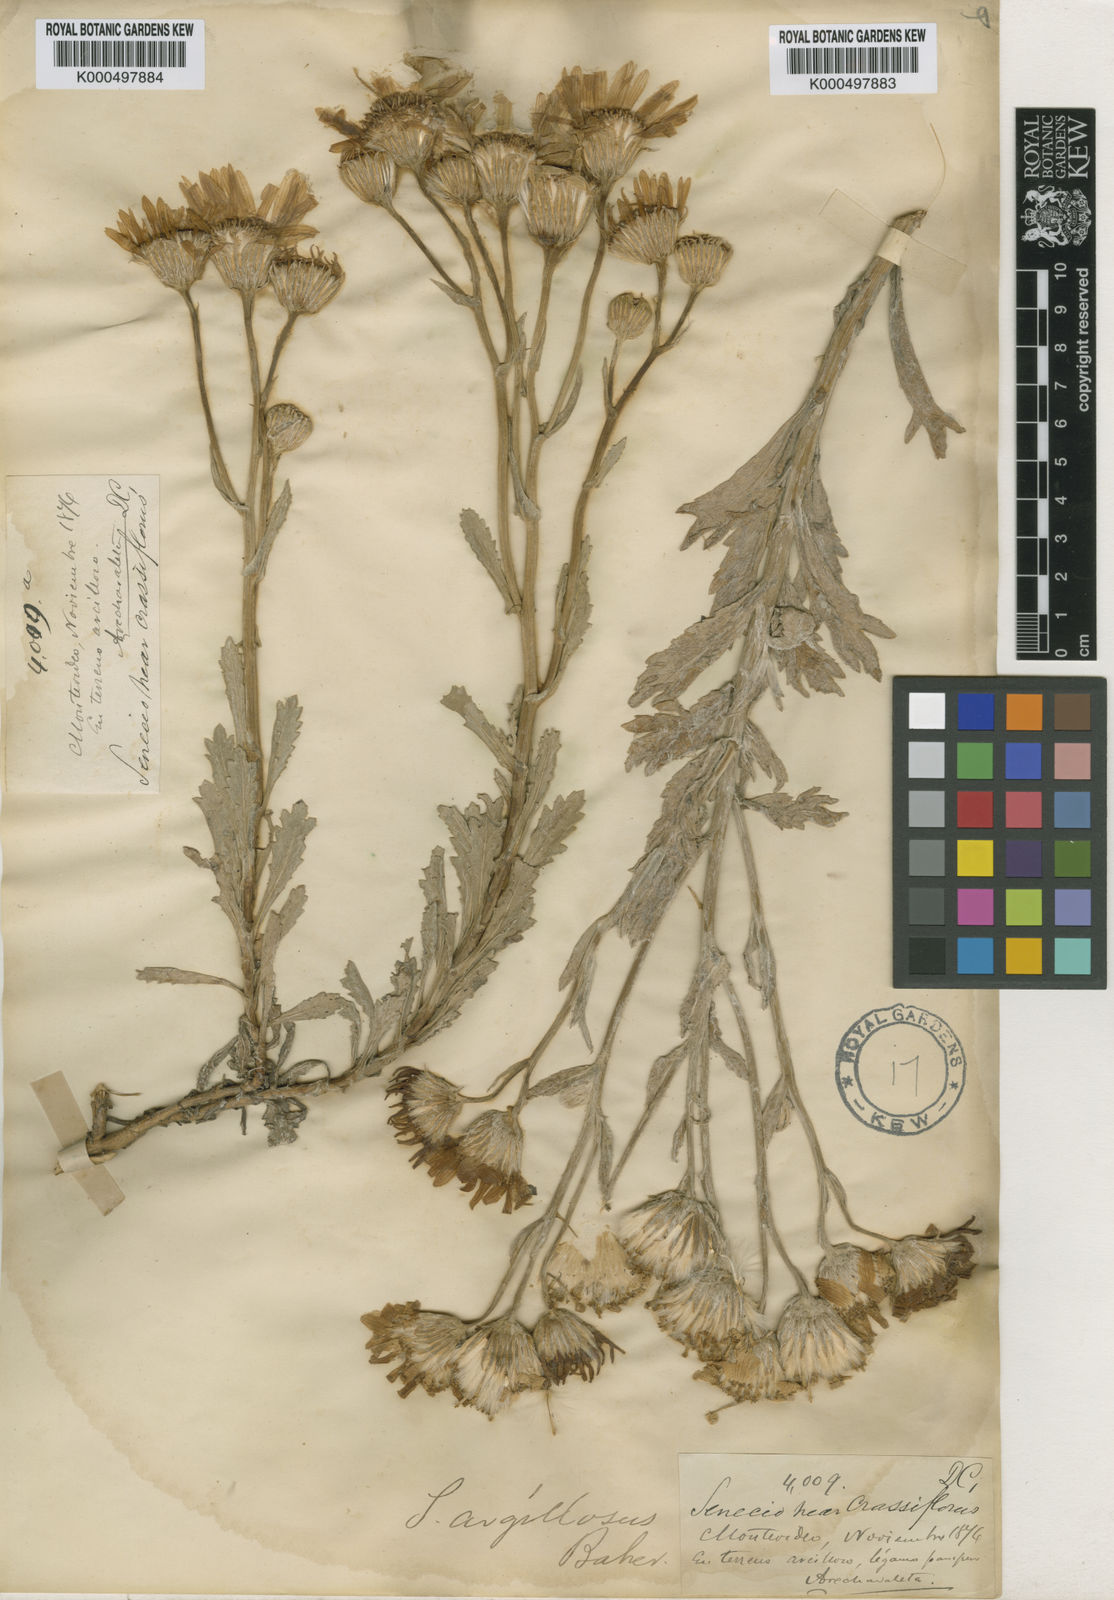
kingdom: Plantae
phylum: Tracheophyta
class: Magnoliopsida
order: Asterales
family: Asteraceae
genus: Senecio
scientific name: Senecio argillosus
